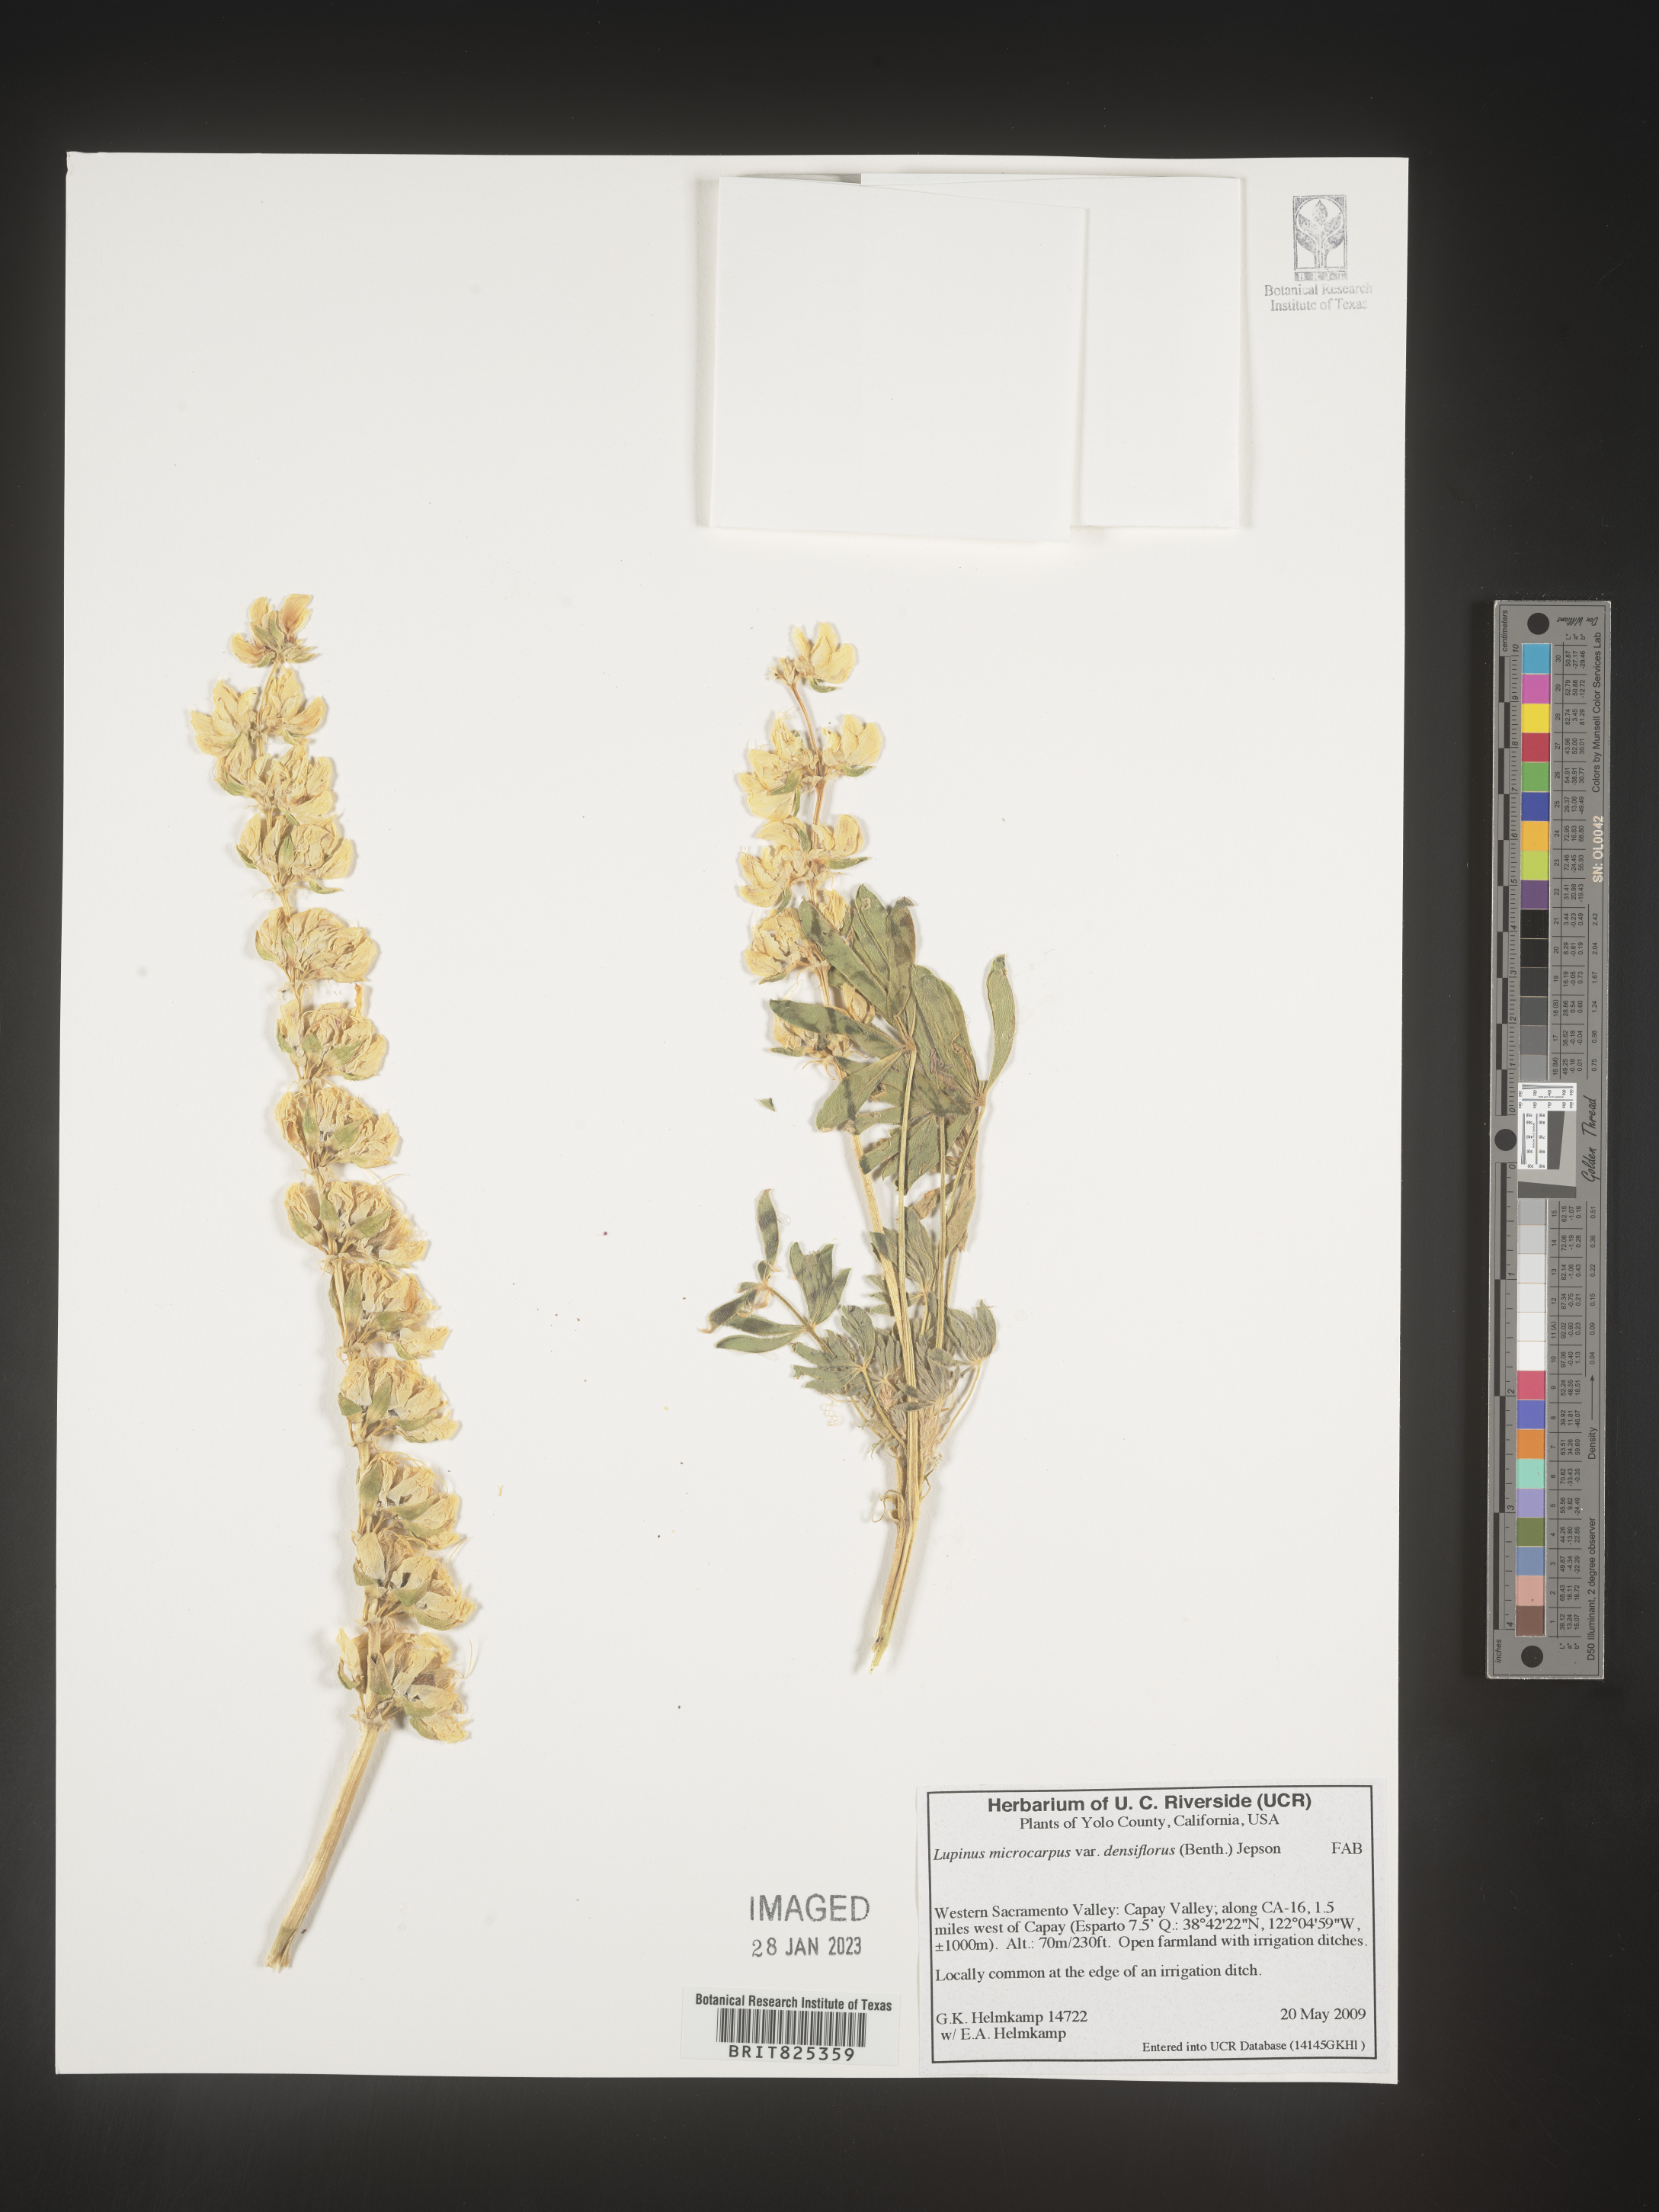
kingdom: Plantae
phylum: Tracheophyta
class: Magnoliopsida
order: Fabales
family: Fabaceae
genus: Lupinus
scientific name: Lupinus
